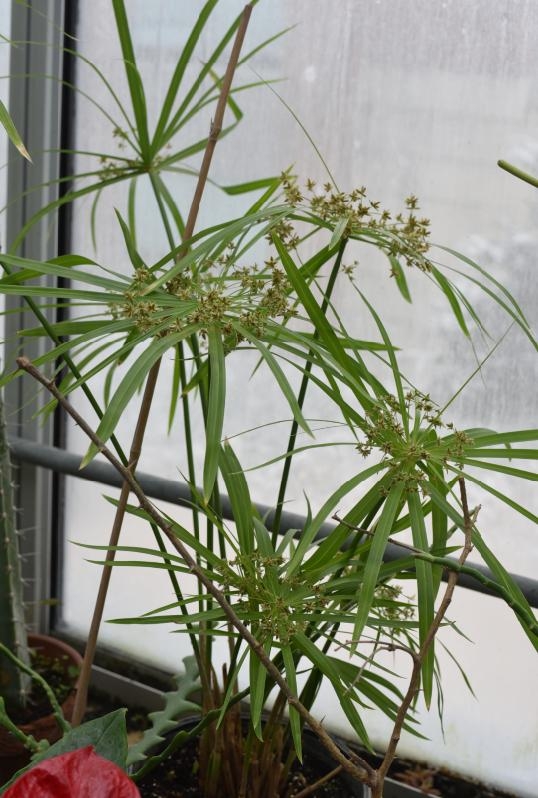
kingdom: Plantae
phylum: Tracheophyta
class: Liliopsida
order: Poales
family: Cyperaceae
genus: Cyperus
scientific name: Cyperus umbellatus
